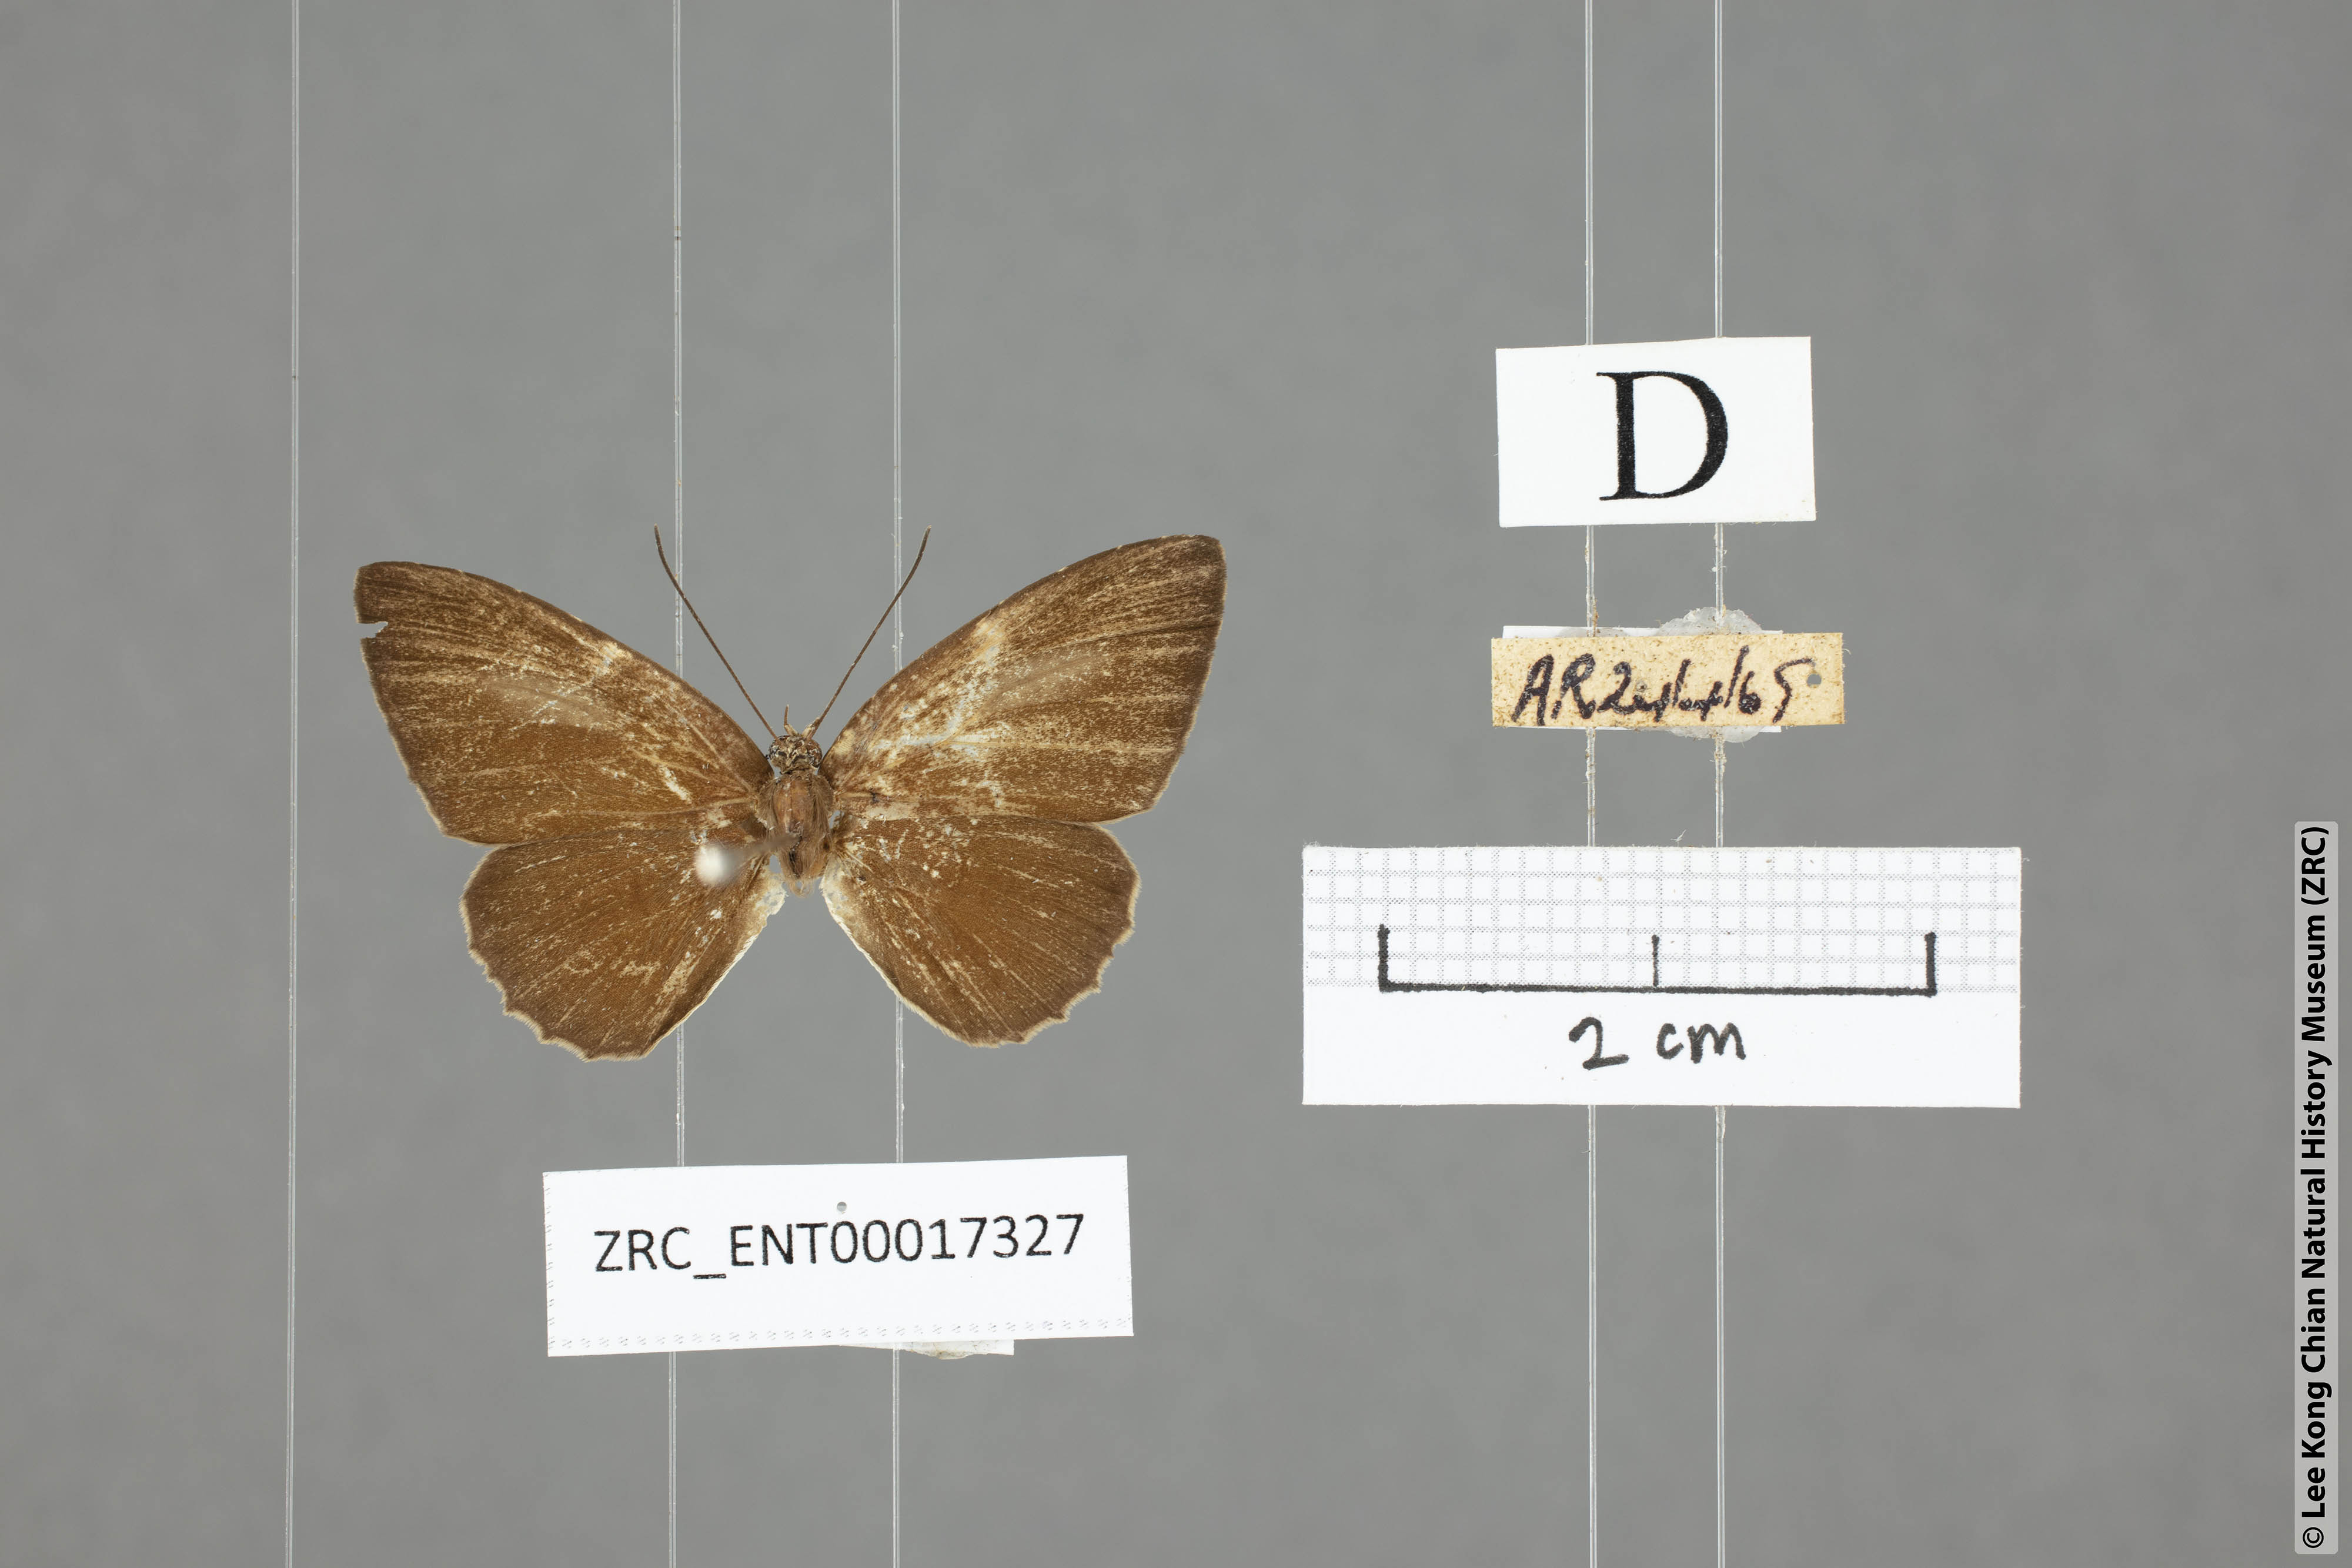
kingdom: Animalia
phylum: Arthropoda
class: Insecta
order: Lepidoptera
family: Lycaenidae
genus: Allotinus
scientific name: Allotinus sarastes
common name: Peninsular darkie
